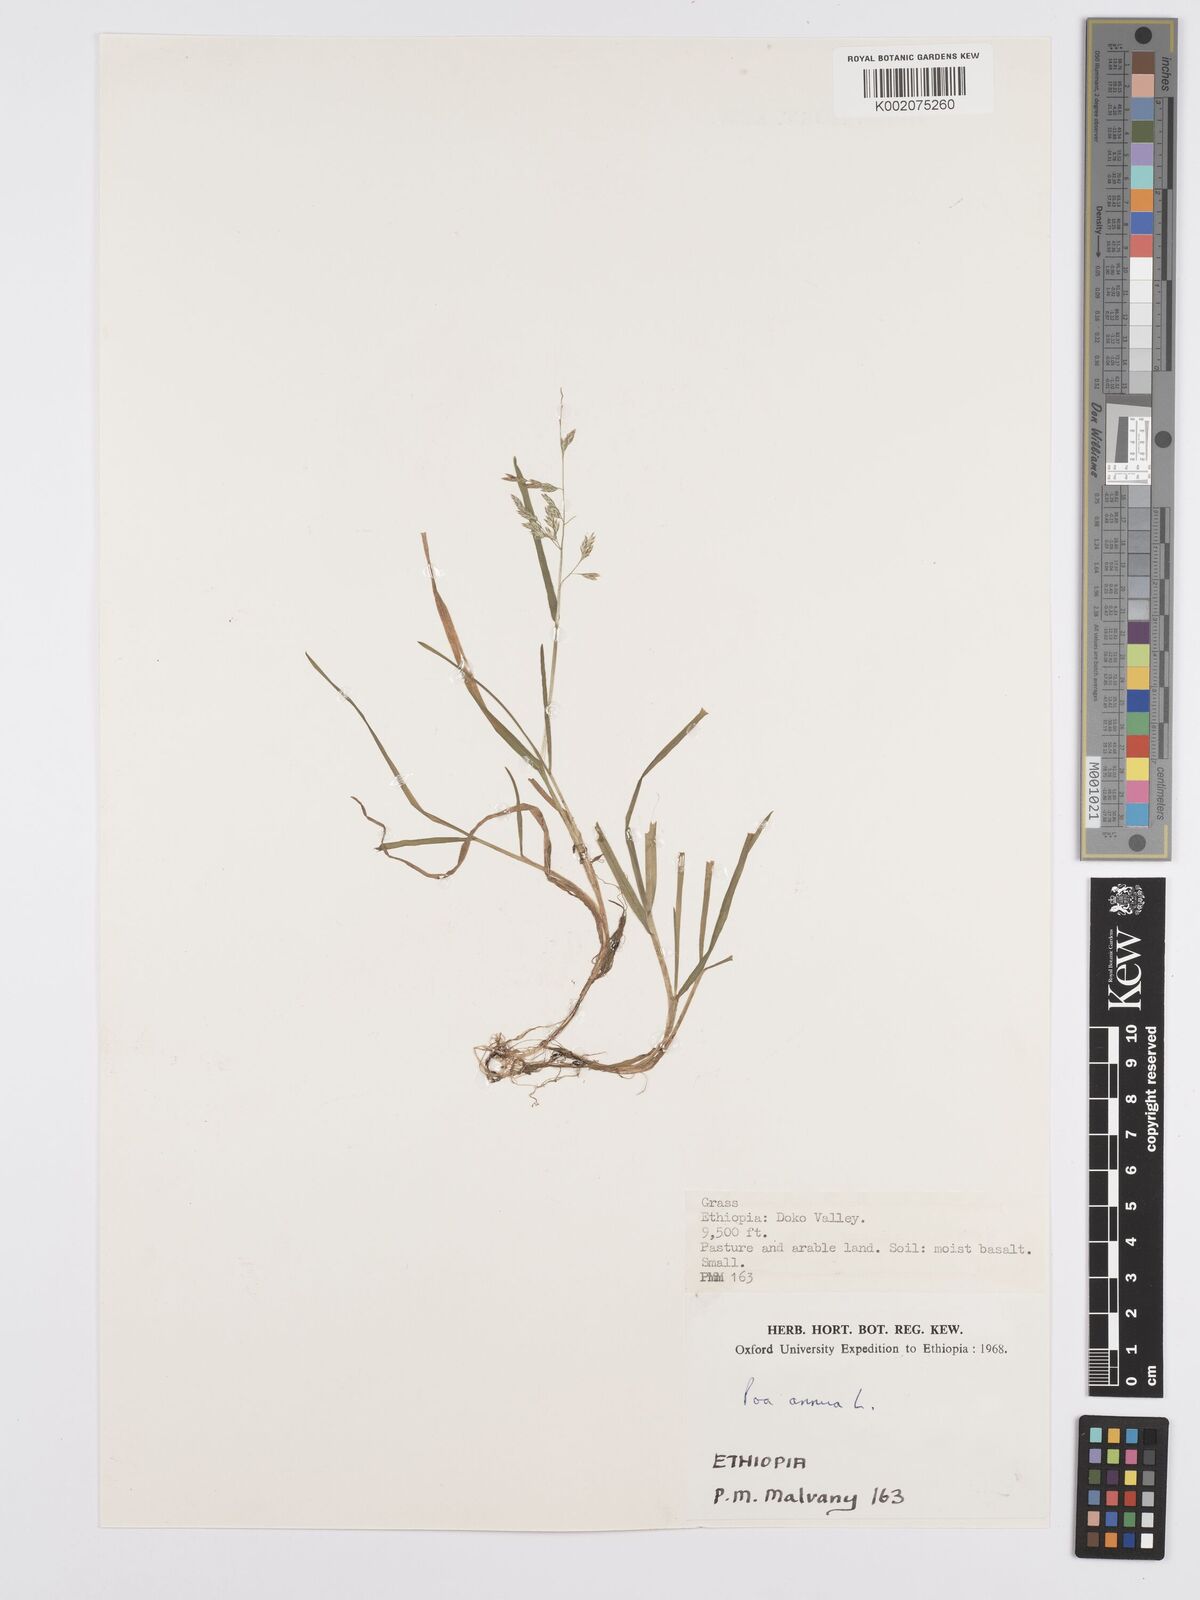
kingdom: Plantae
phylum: Tracheophyta
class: Liliopsida
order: Poales
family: Poaceae
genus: Poa
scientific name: Poa annua
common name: Annual bluegrass
